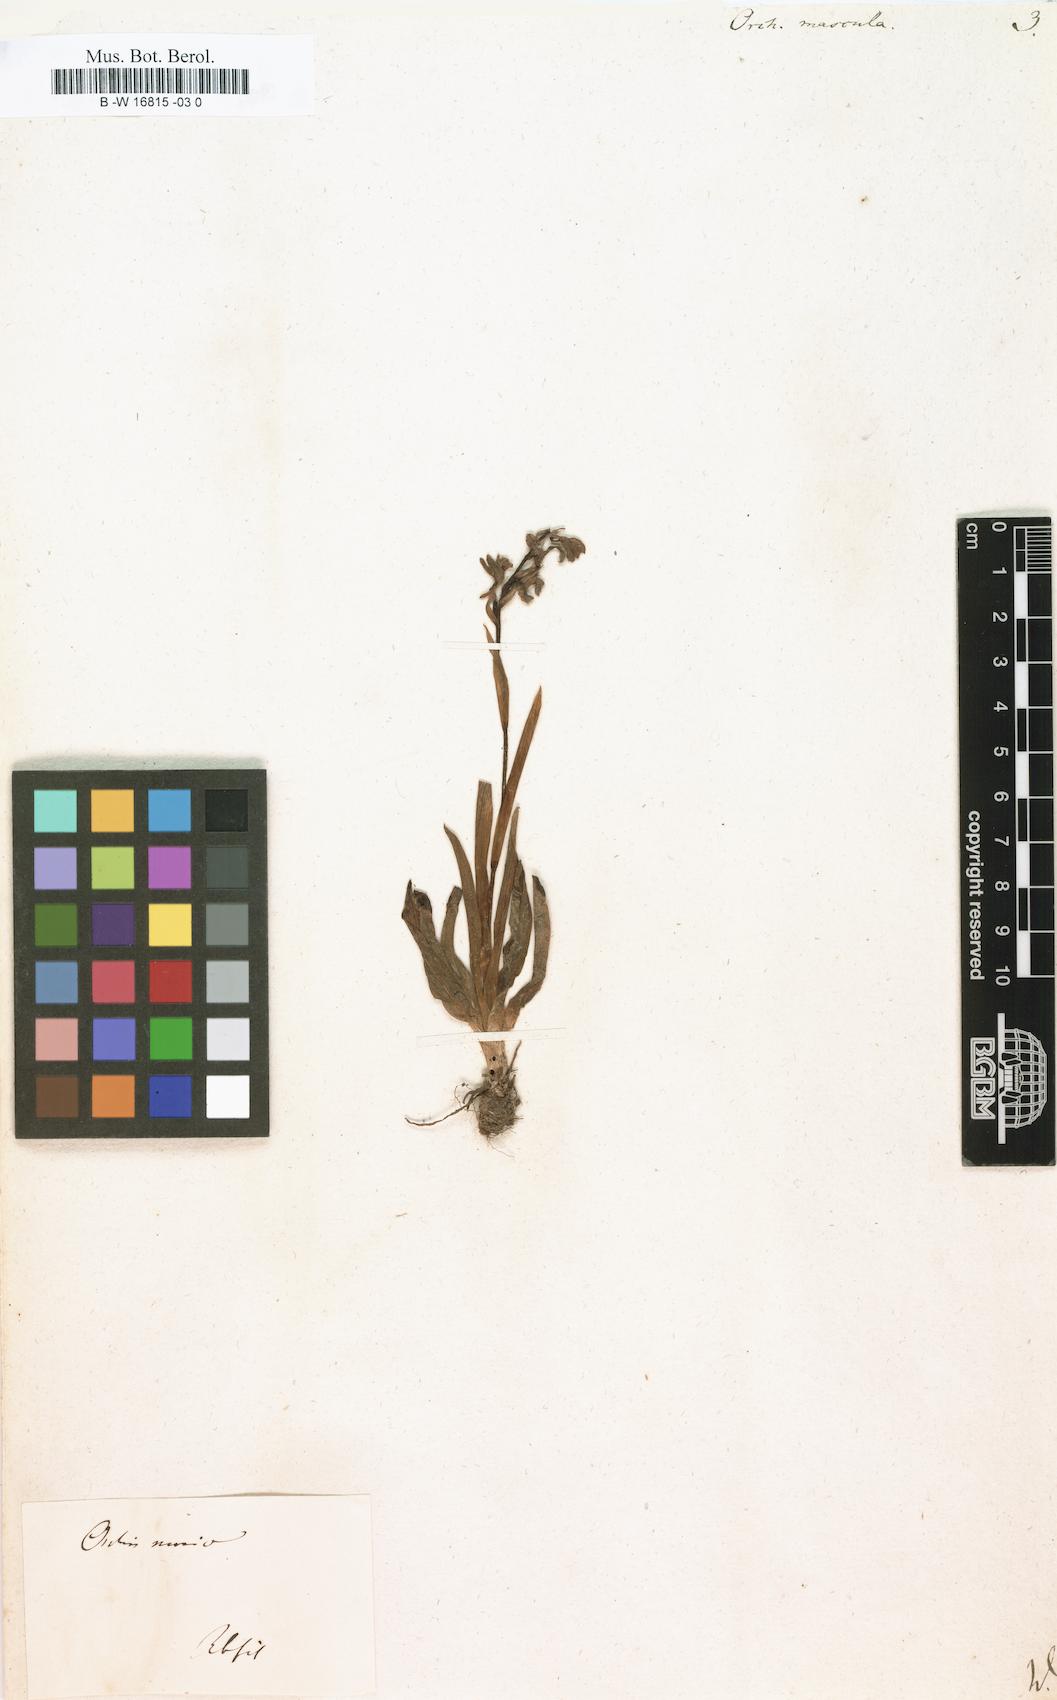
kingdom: Plantae
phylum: Tracheophyta
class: Liliopsida
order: Asparagales
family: Orchidaceae
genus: Orchis
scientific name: Orchis mascula
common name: Early-purple orchid
